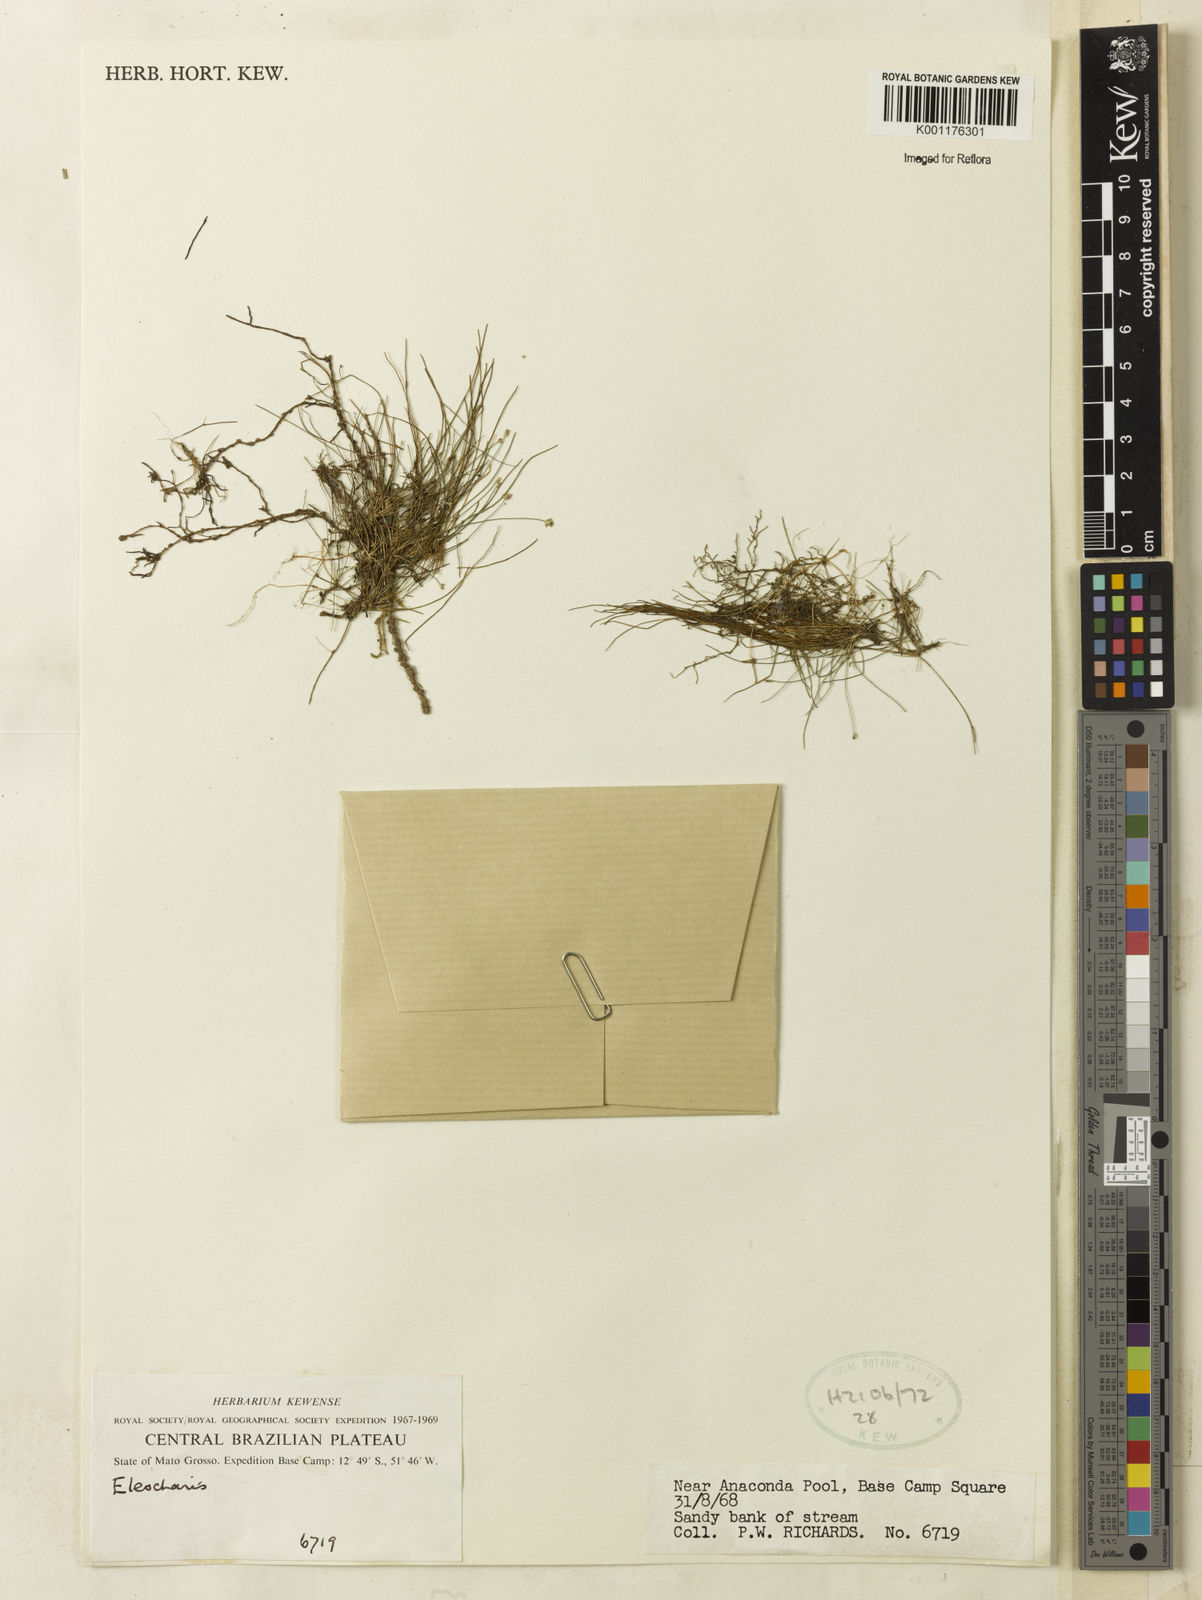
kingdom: Plantae
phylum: Tracheophyta
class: Liliopsida
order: Poales
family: Cyperaceae
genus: Eleocharis
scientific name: Eleocharis
